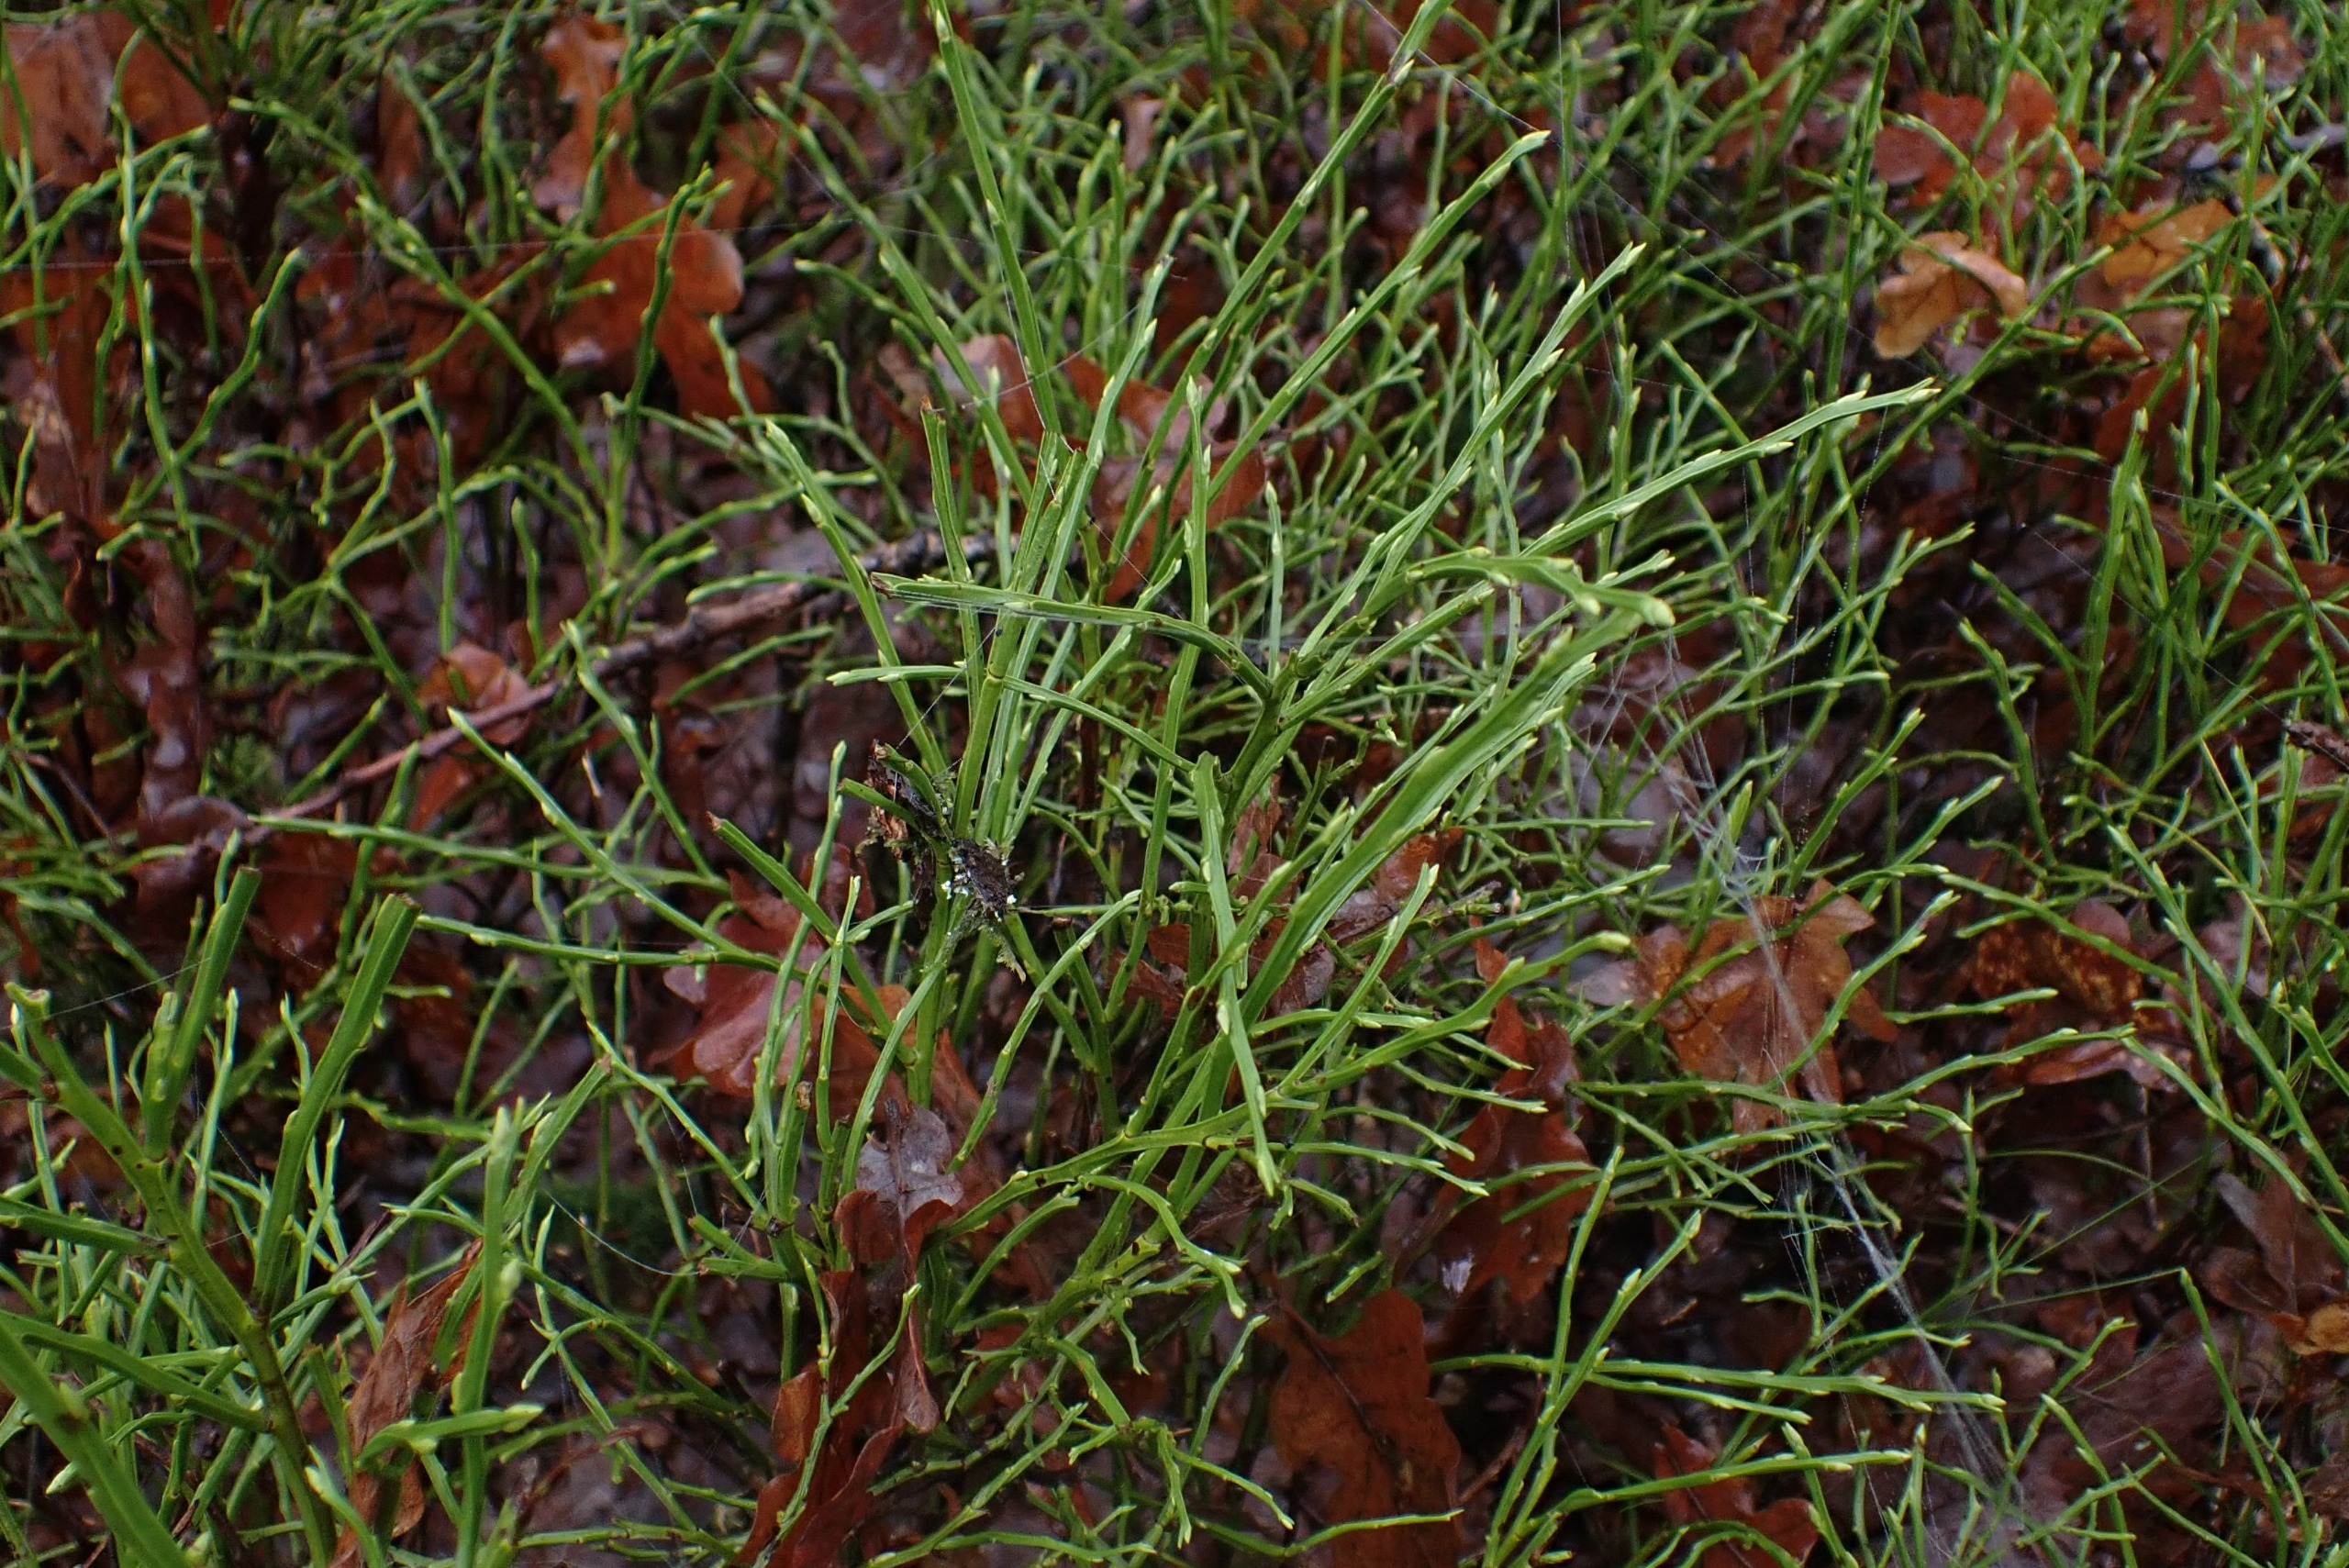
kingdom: Plantae
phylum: Tracheophyta
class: Magnoliopsida
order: Ericales
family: Ericaceae
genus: Vaccinium
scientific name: Vaccinium myrtillus
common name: Blåbær
